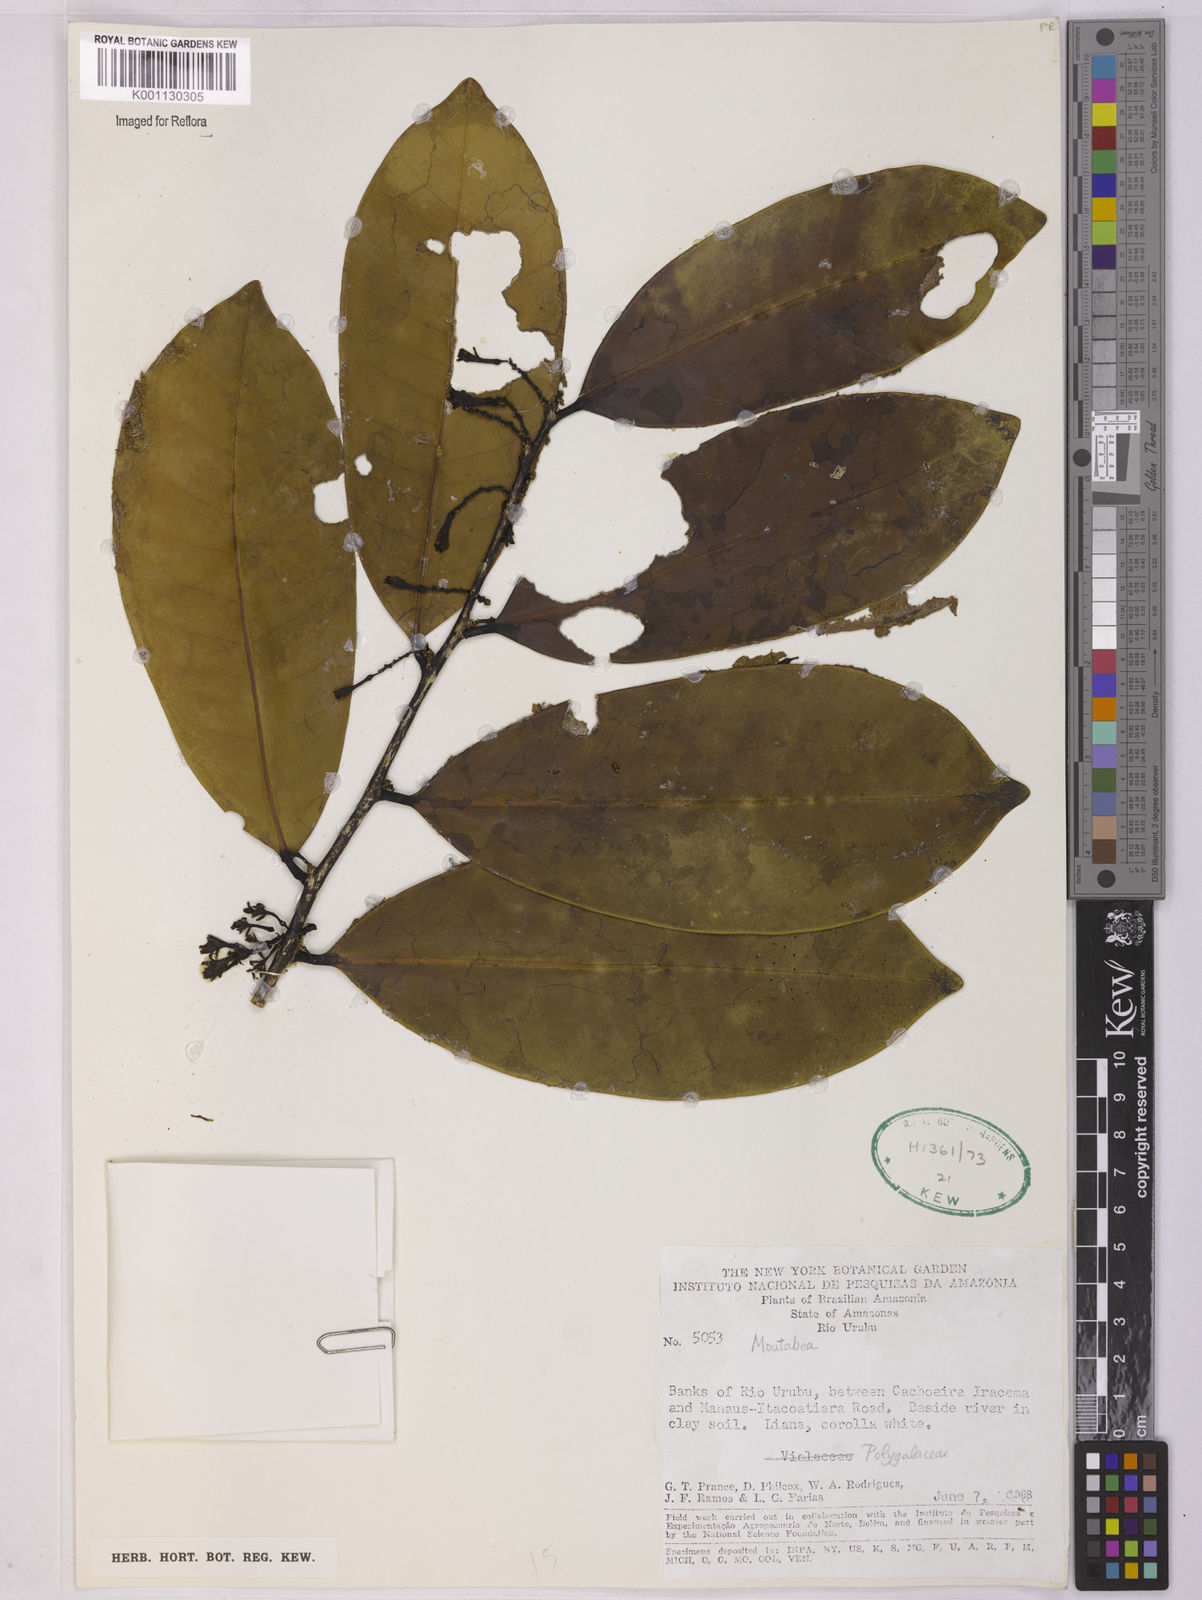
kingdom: Plantae
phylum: Tracheophyta
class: Magnoliopsida
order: Fabales
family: Polygalaceae
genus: Moutabea
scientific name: Moutabea
